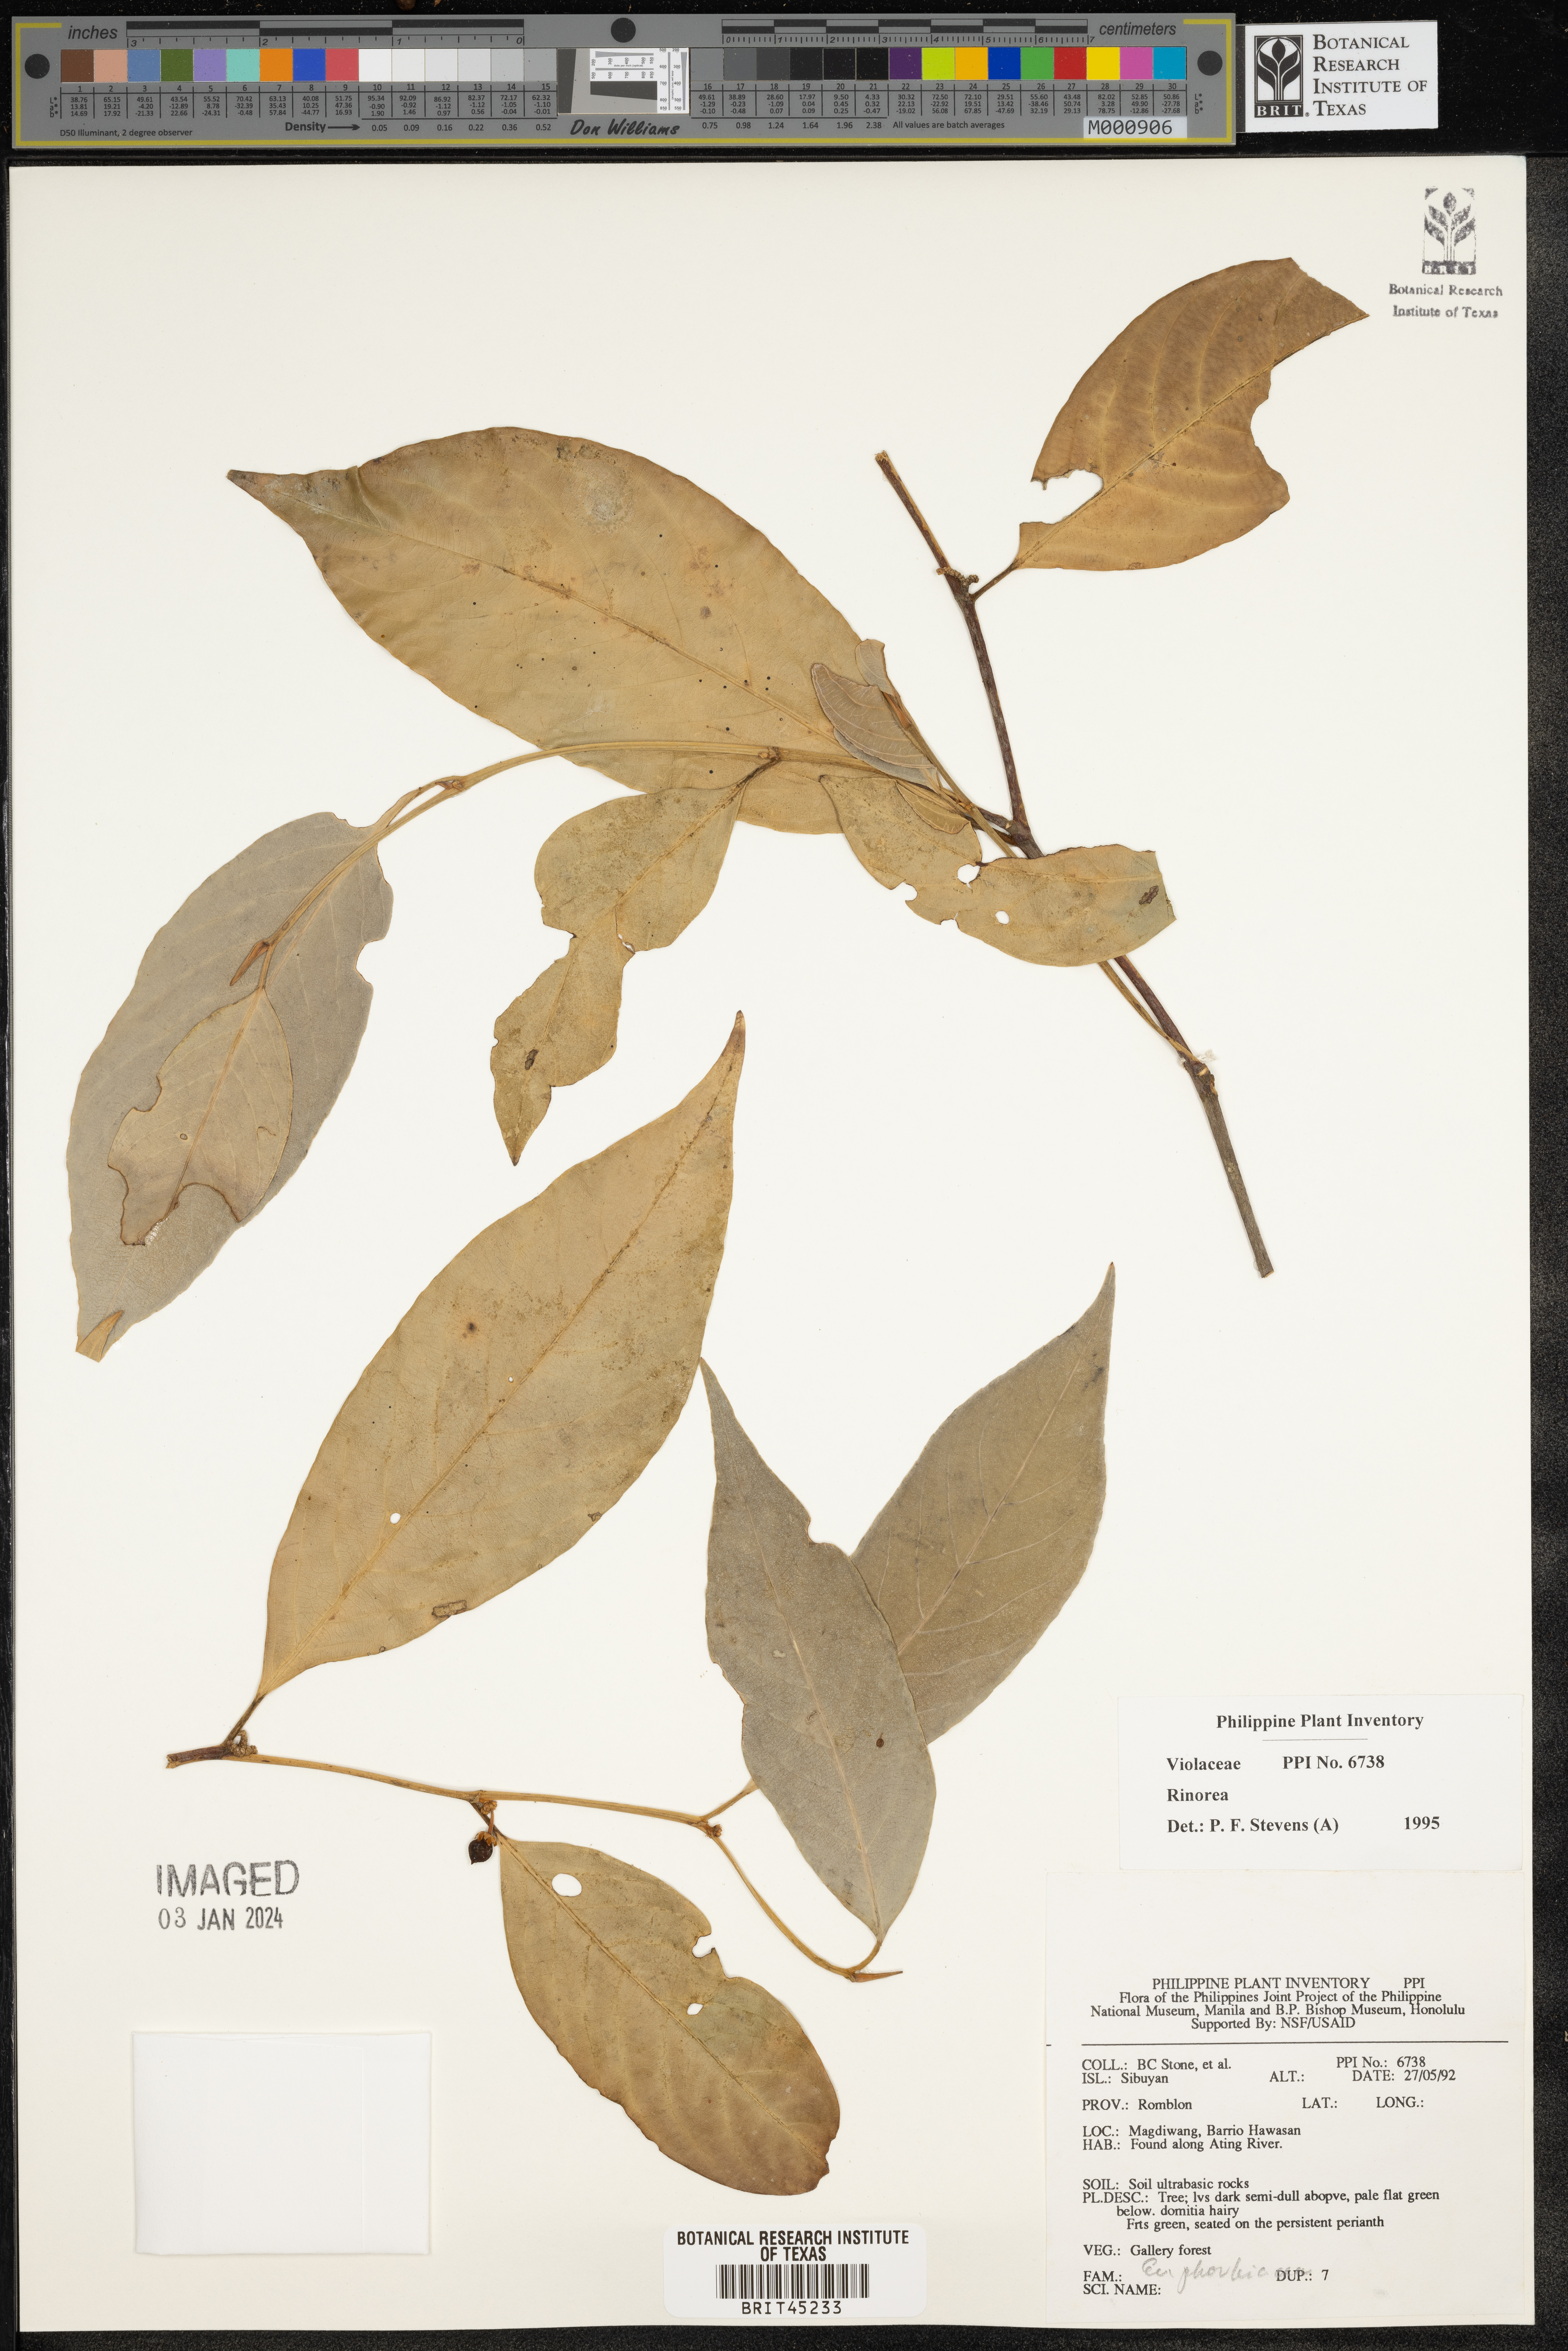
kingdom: Plantae
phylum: Tracheophyta
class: Magnoliopsida
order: Malpighiales
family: Violaceae
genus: Rinorea
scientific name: Rinorea
